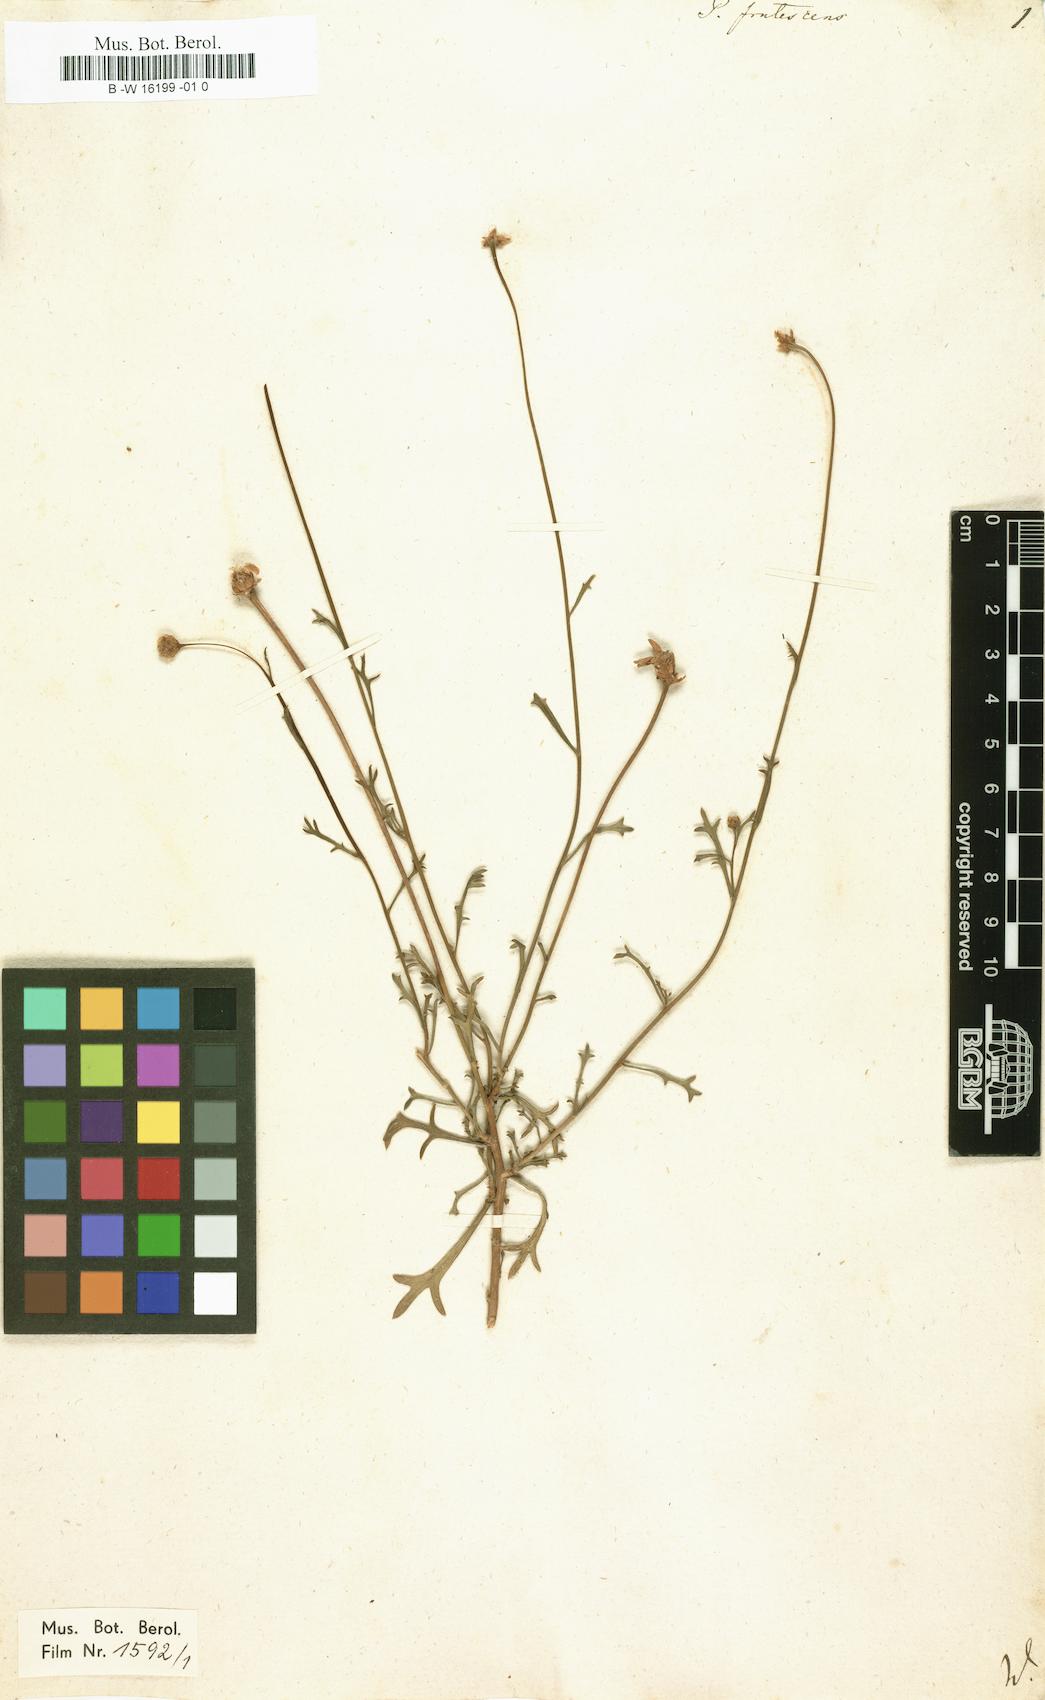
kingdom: Plantae
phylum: Tracheophyta
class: Magnoliopsida
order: Asterales
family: Asteraceae
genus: Argyranthemum
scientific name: Argyranthemum frutescens
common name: Paris daisy
